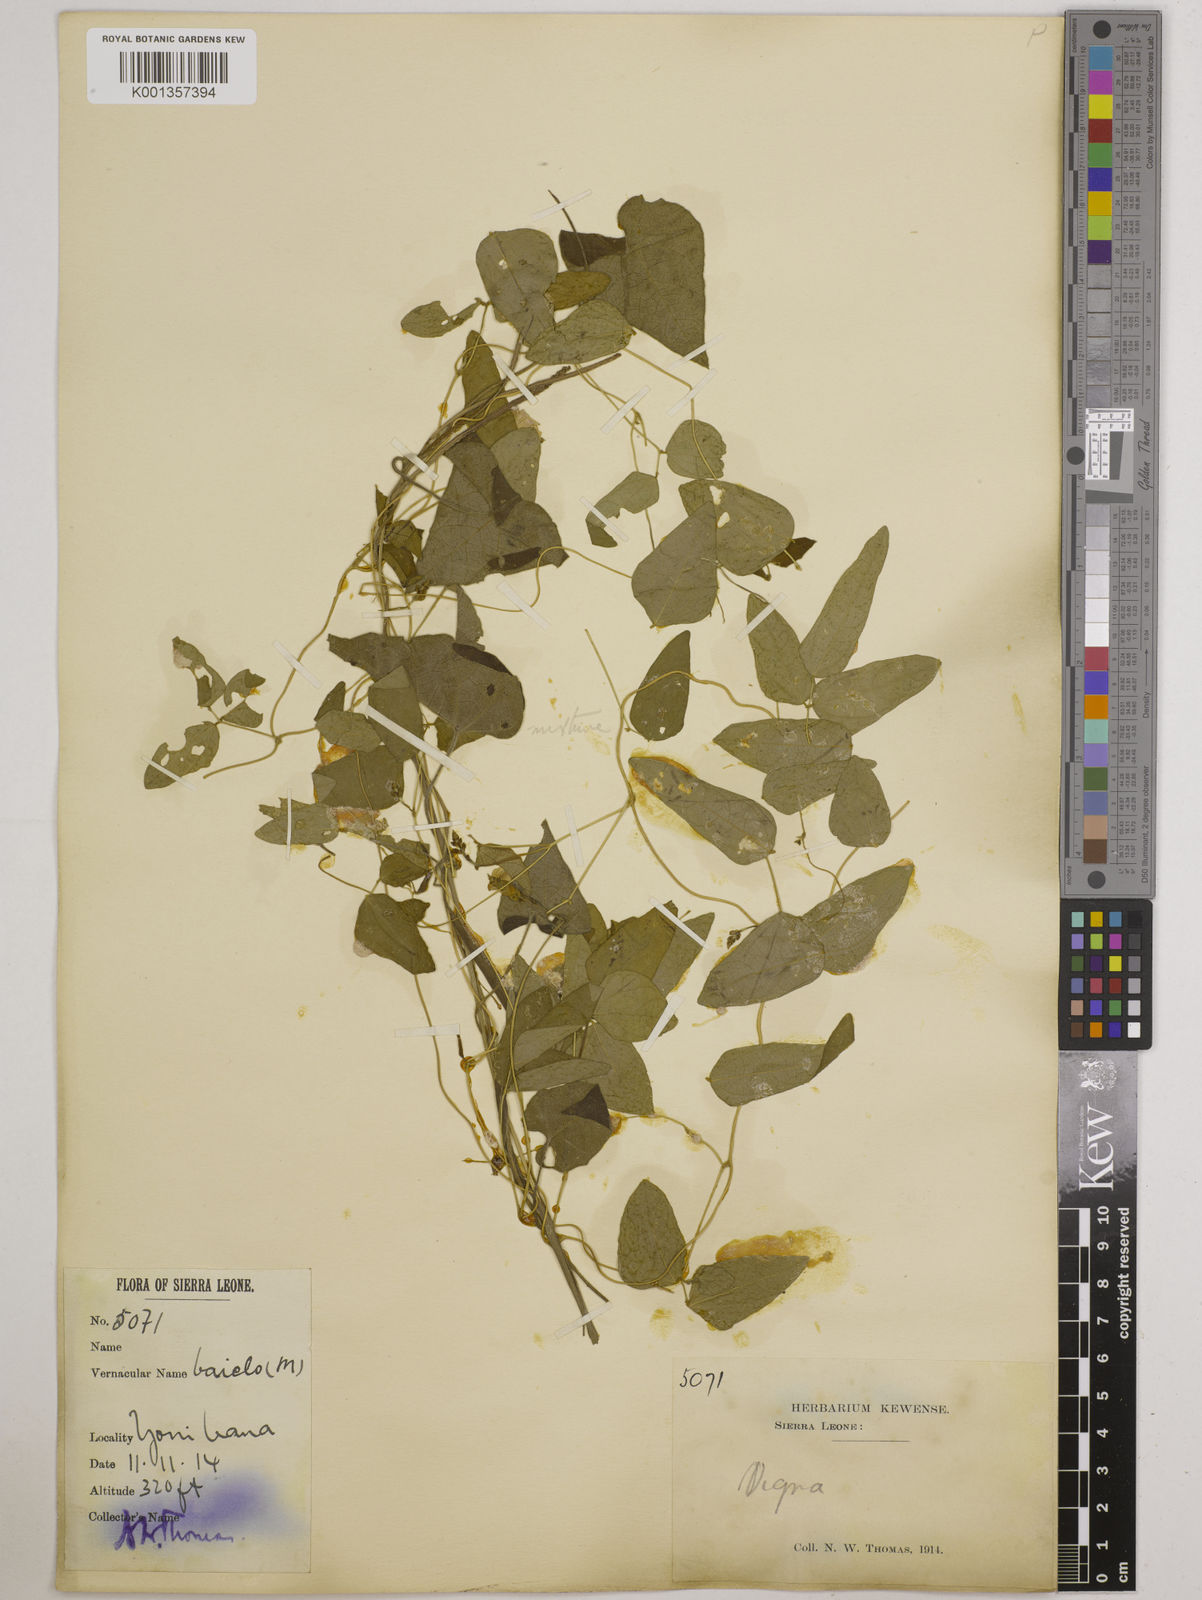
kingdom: Plantae
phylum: Tracheophyta
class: Magnoliopsida
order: Fabales
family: Fabaceae
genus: Vigna
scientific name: Vigna gracilis
